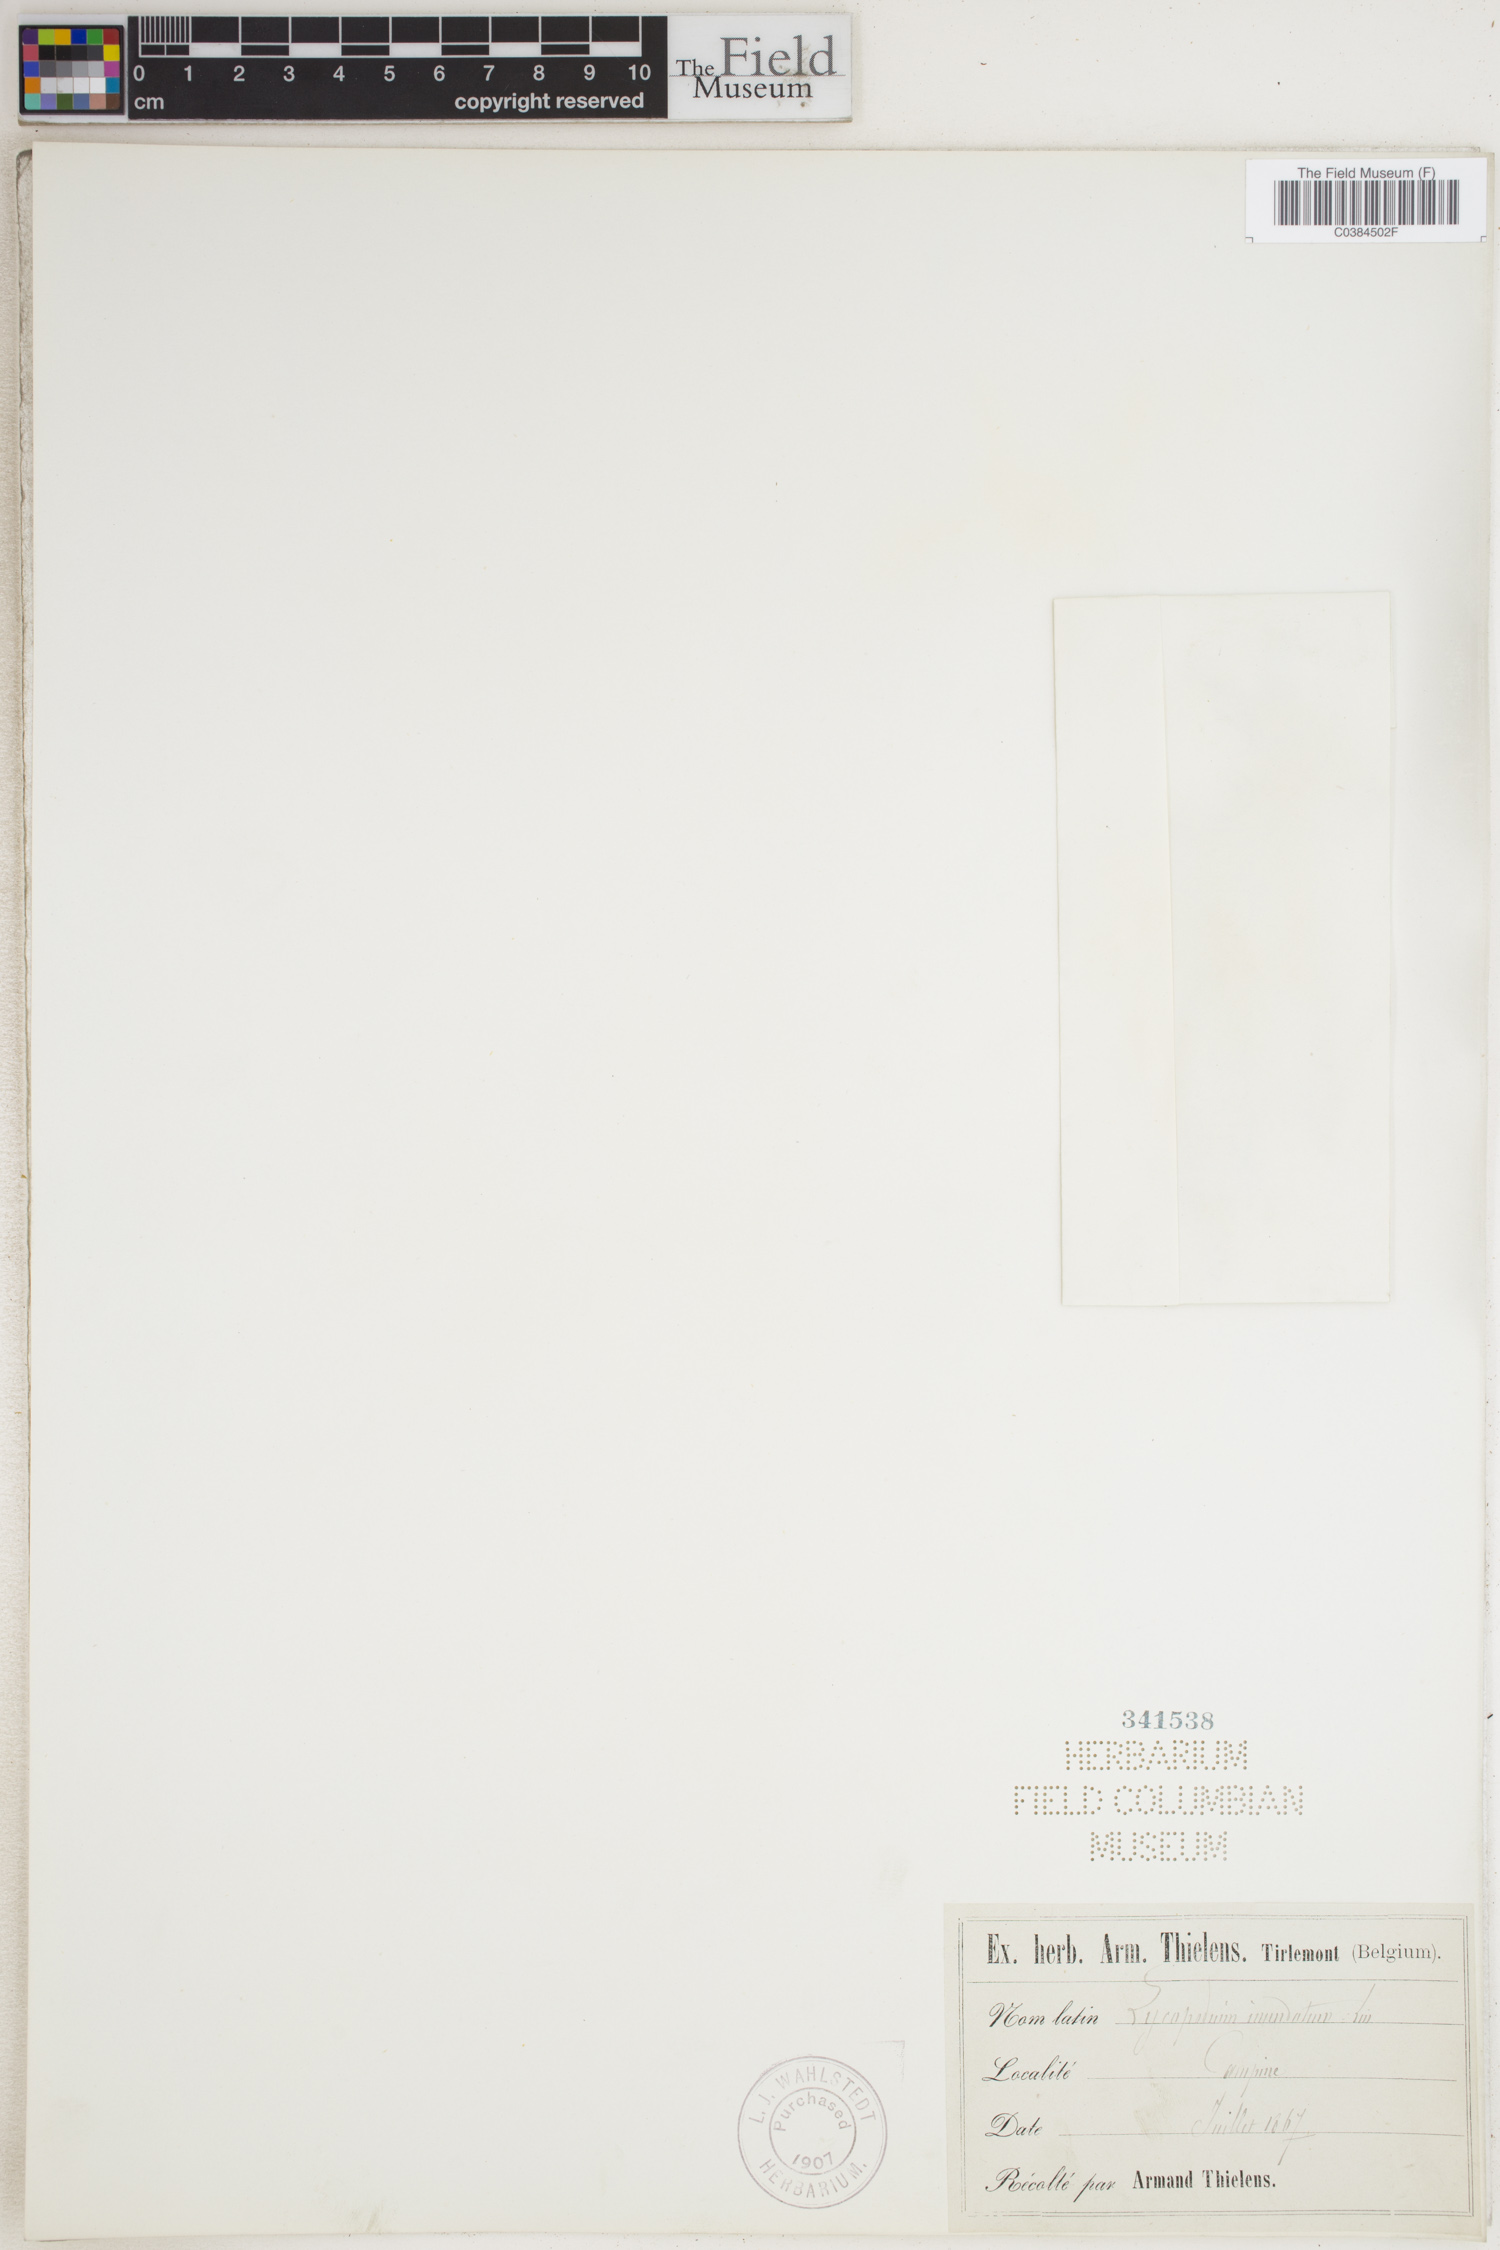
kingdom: Plantae
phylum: Tracheophyta
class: Lycopodiopsida
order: Lycopodiales
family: Lycopodiaceae
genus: Lycopodiella
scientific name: Lycopodiella inundata
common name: Marsh clubmoss
